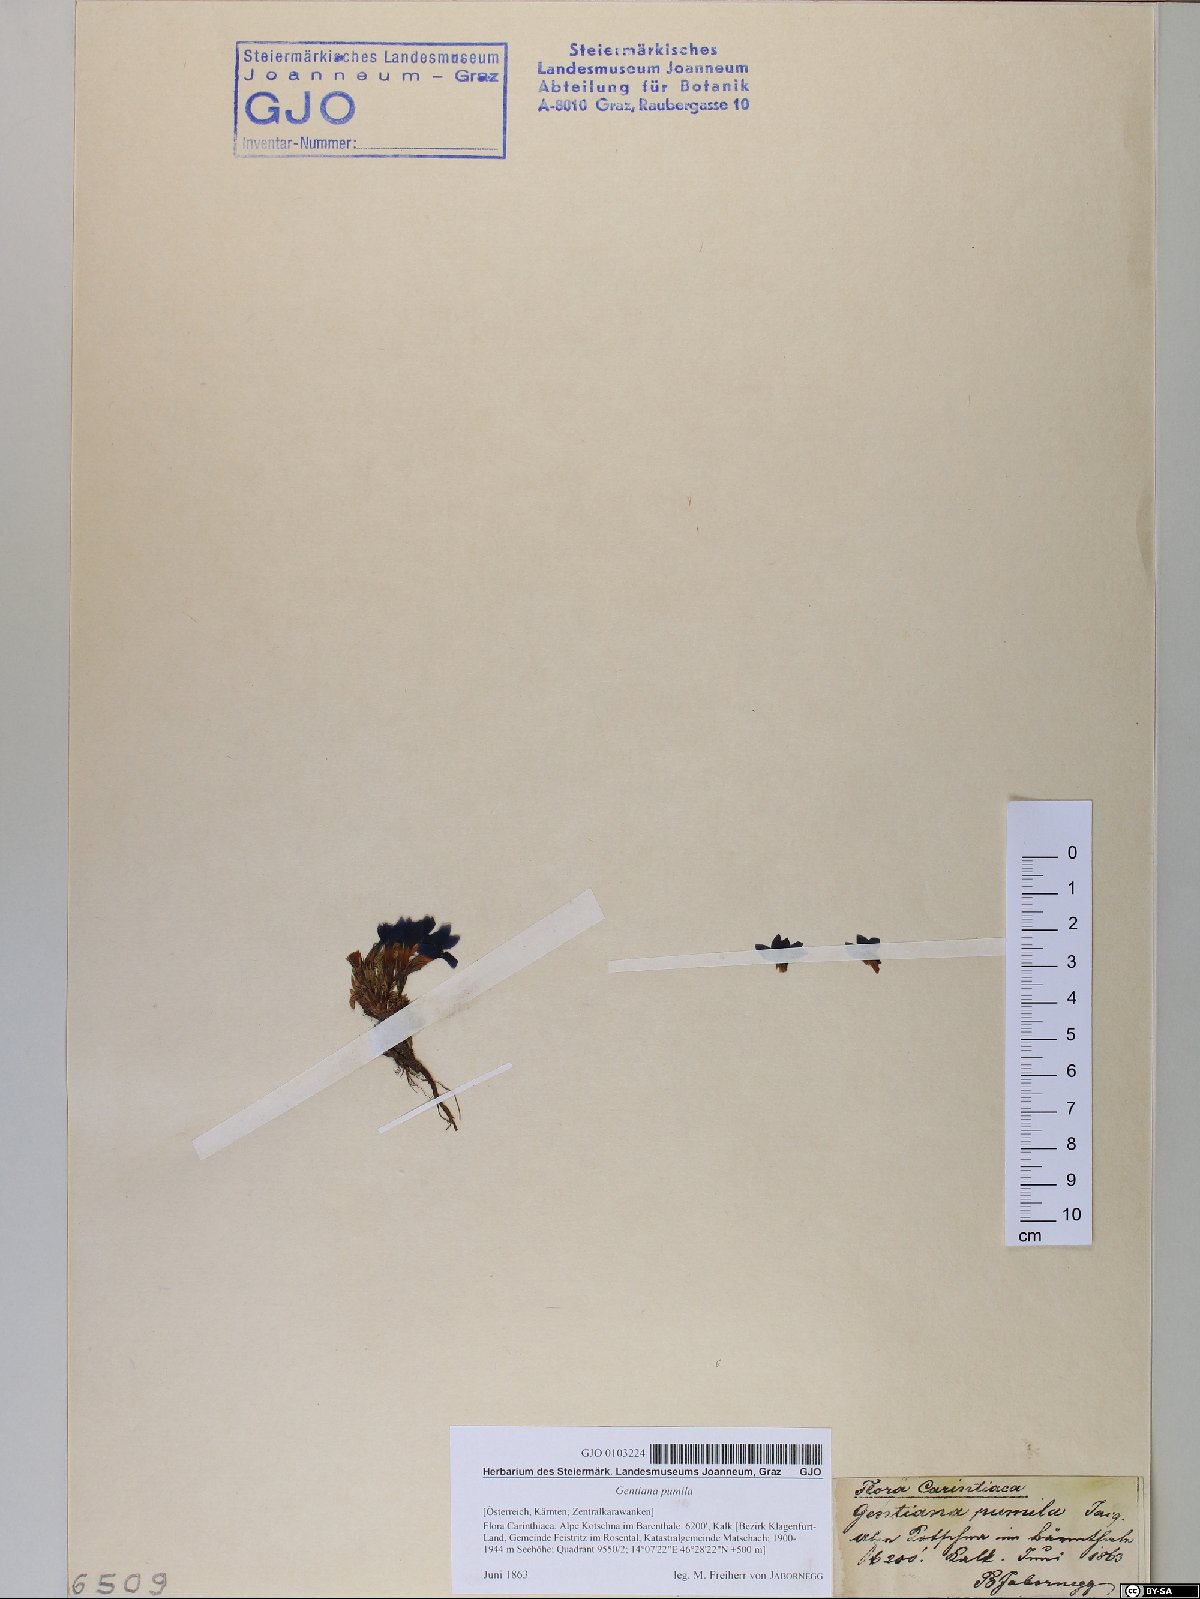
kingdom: Plantae
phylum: Tracheophyta
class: Magnoliopsida
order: Gentianales
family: Gentianaceae
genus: Gentiana
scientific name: Gentiana pumila
